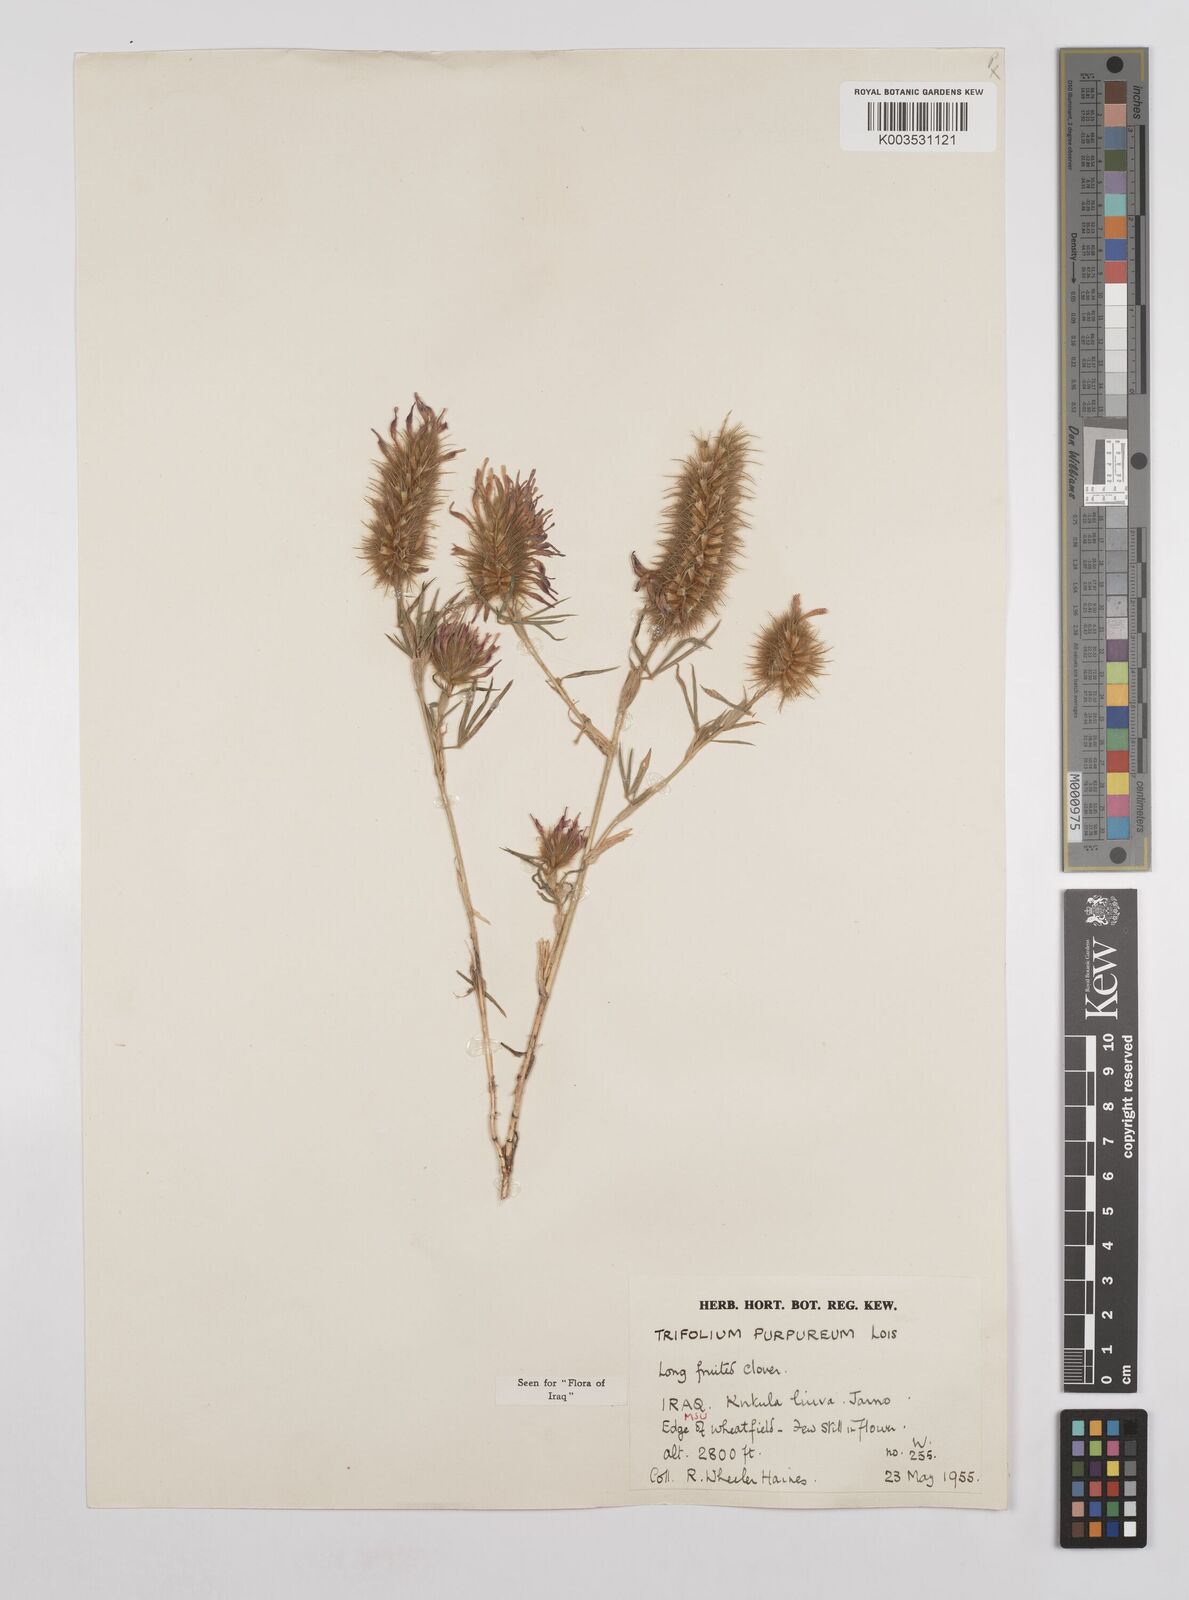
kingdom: Plantae
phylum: Tracheophyta
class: Magnoliopsida
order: Fabales
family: Fabaceae
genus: Trifolium
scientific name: Trifolium purpureum
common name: Purple clover
